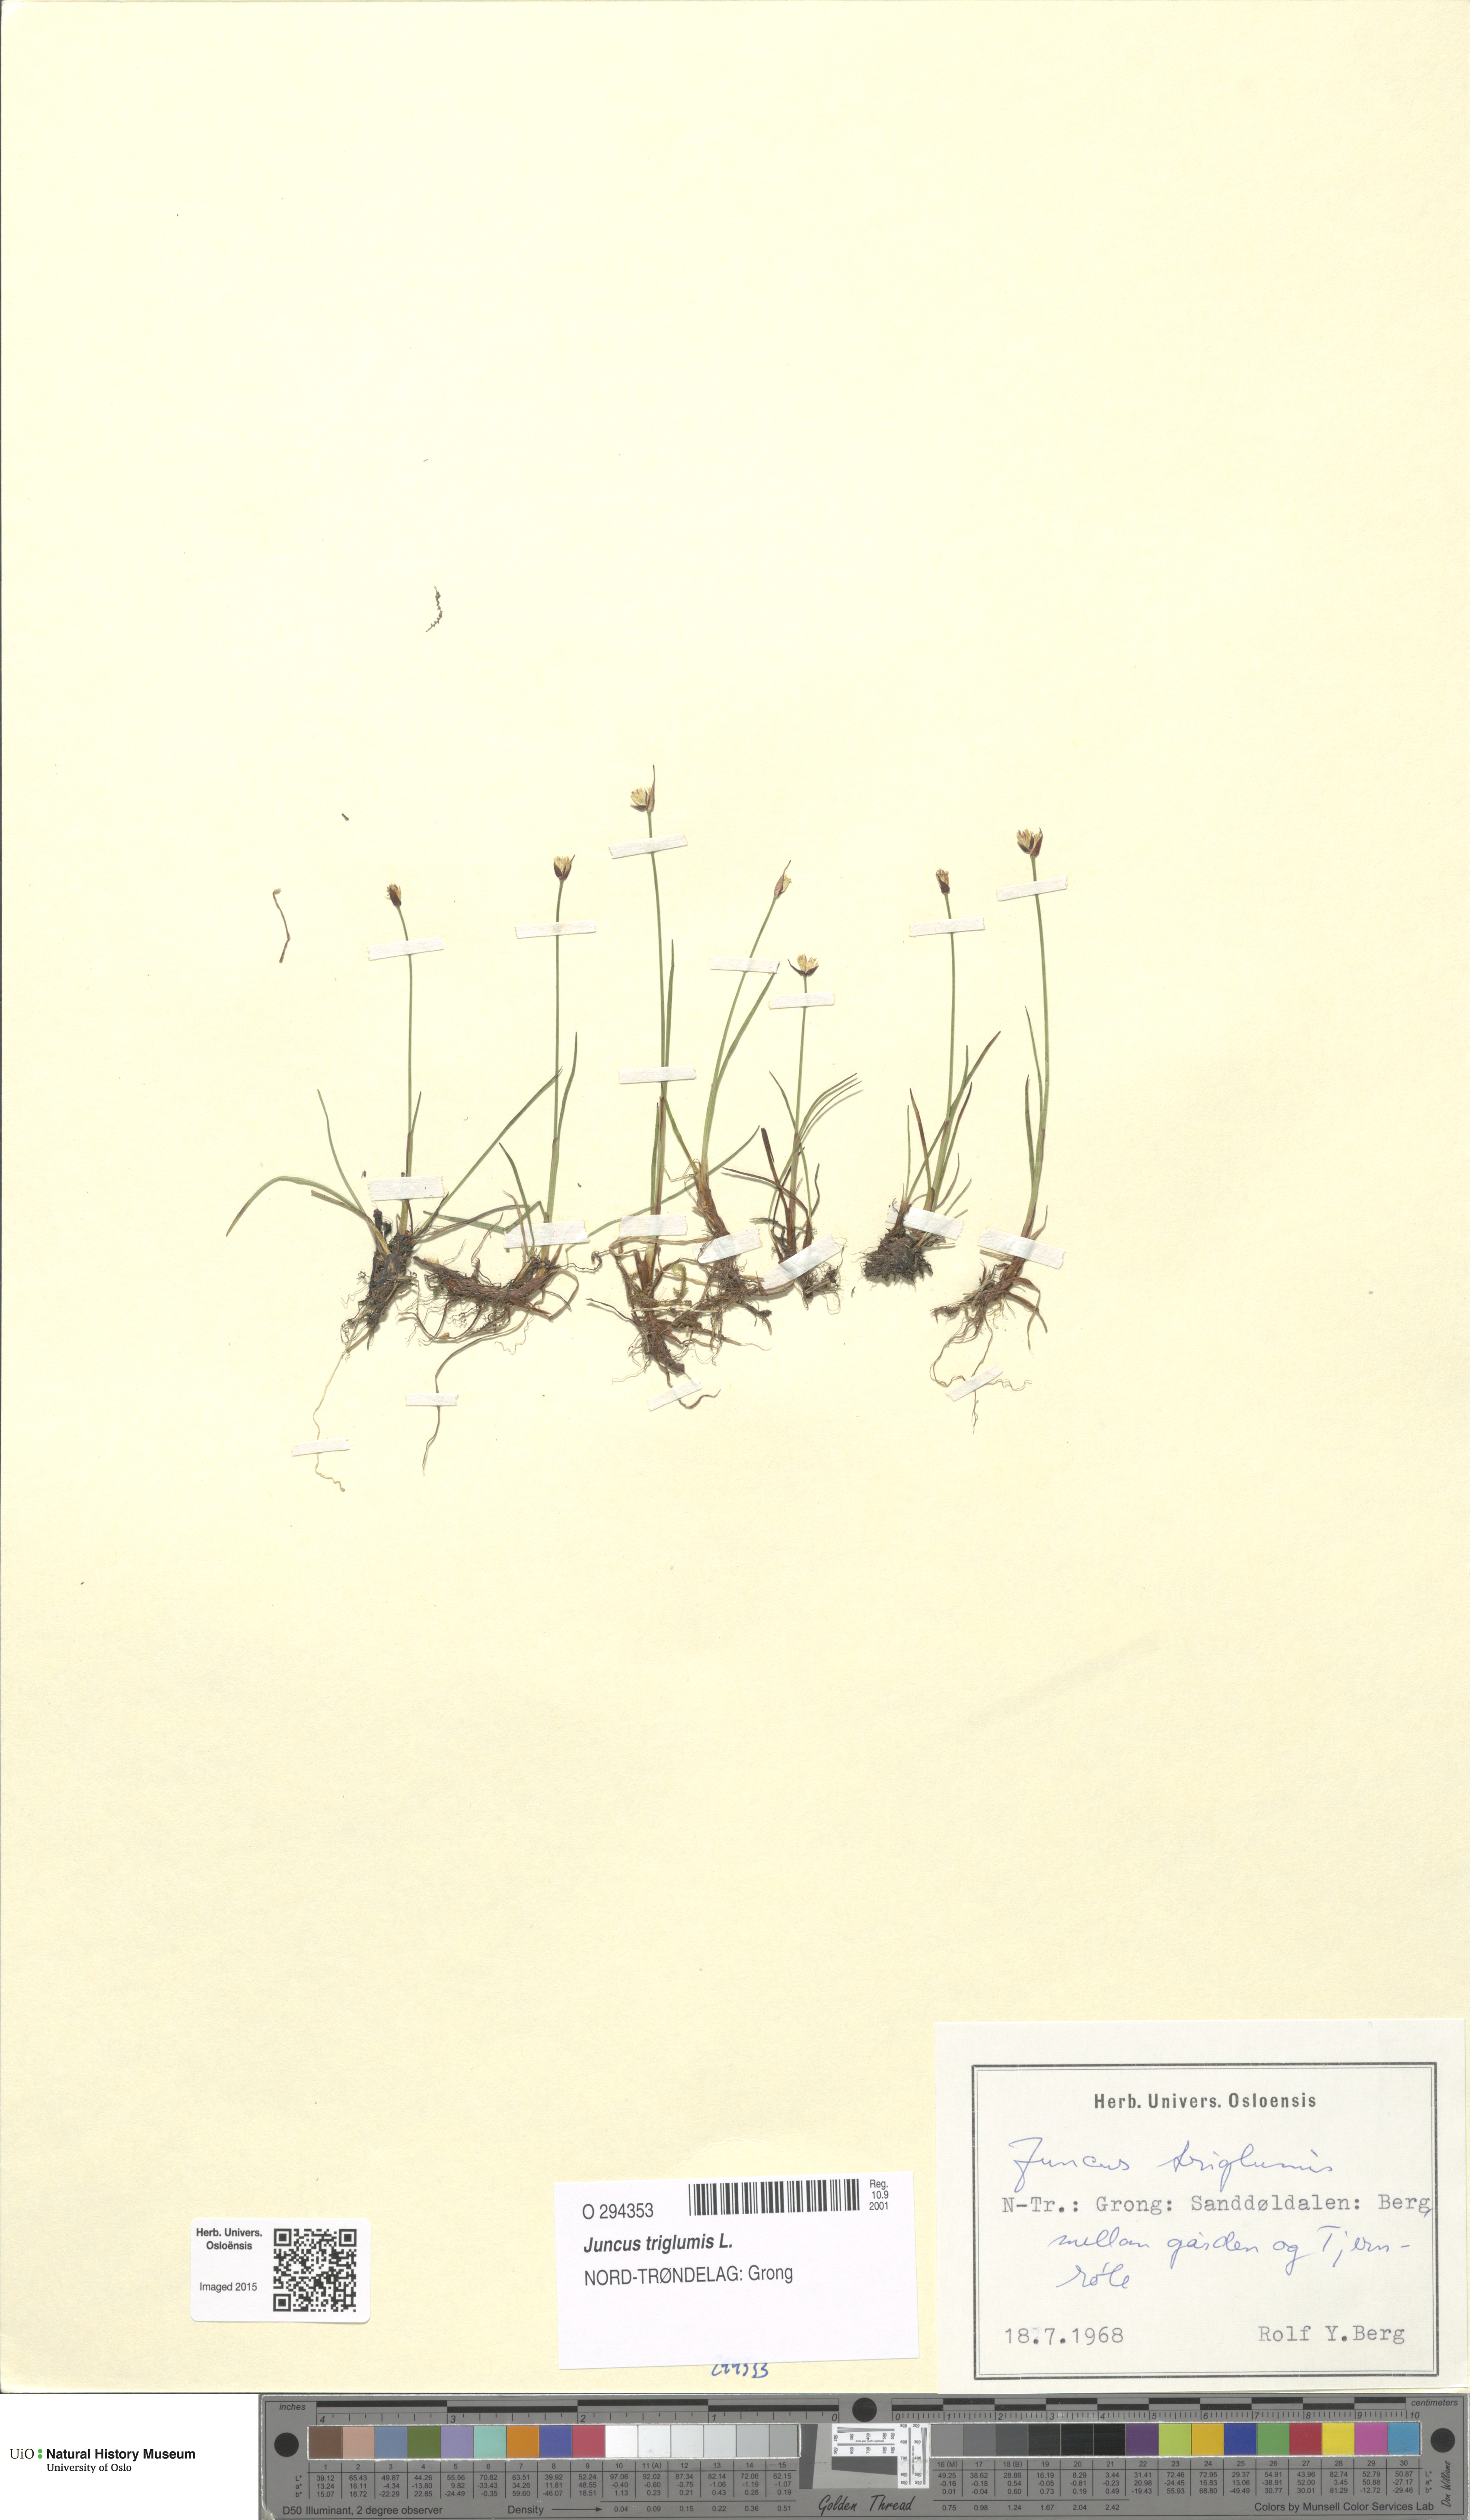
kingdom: Plantae
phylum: Tracheophyta
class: Liliopsida
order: Poales
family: Juncaceae
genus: Juncus
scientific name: Juncus triglumis
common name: Three-flowered rush
